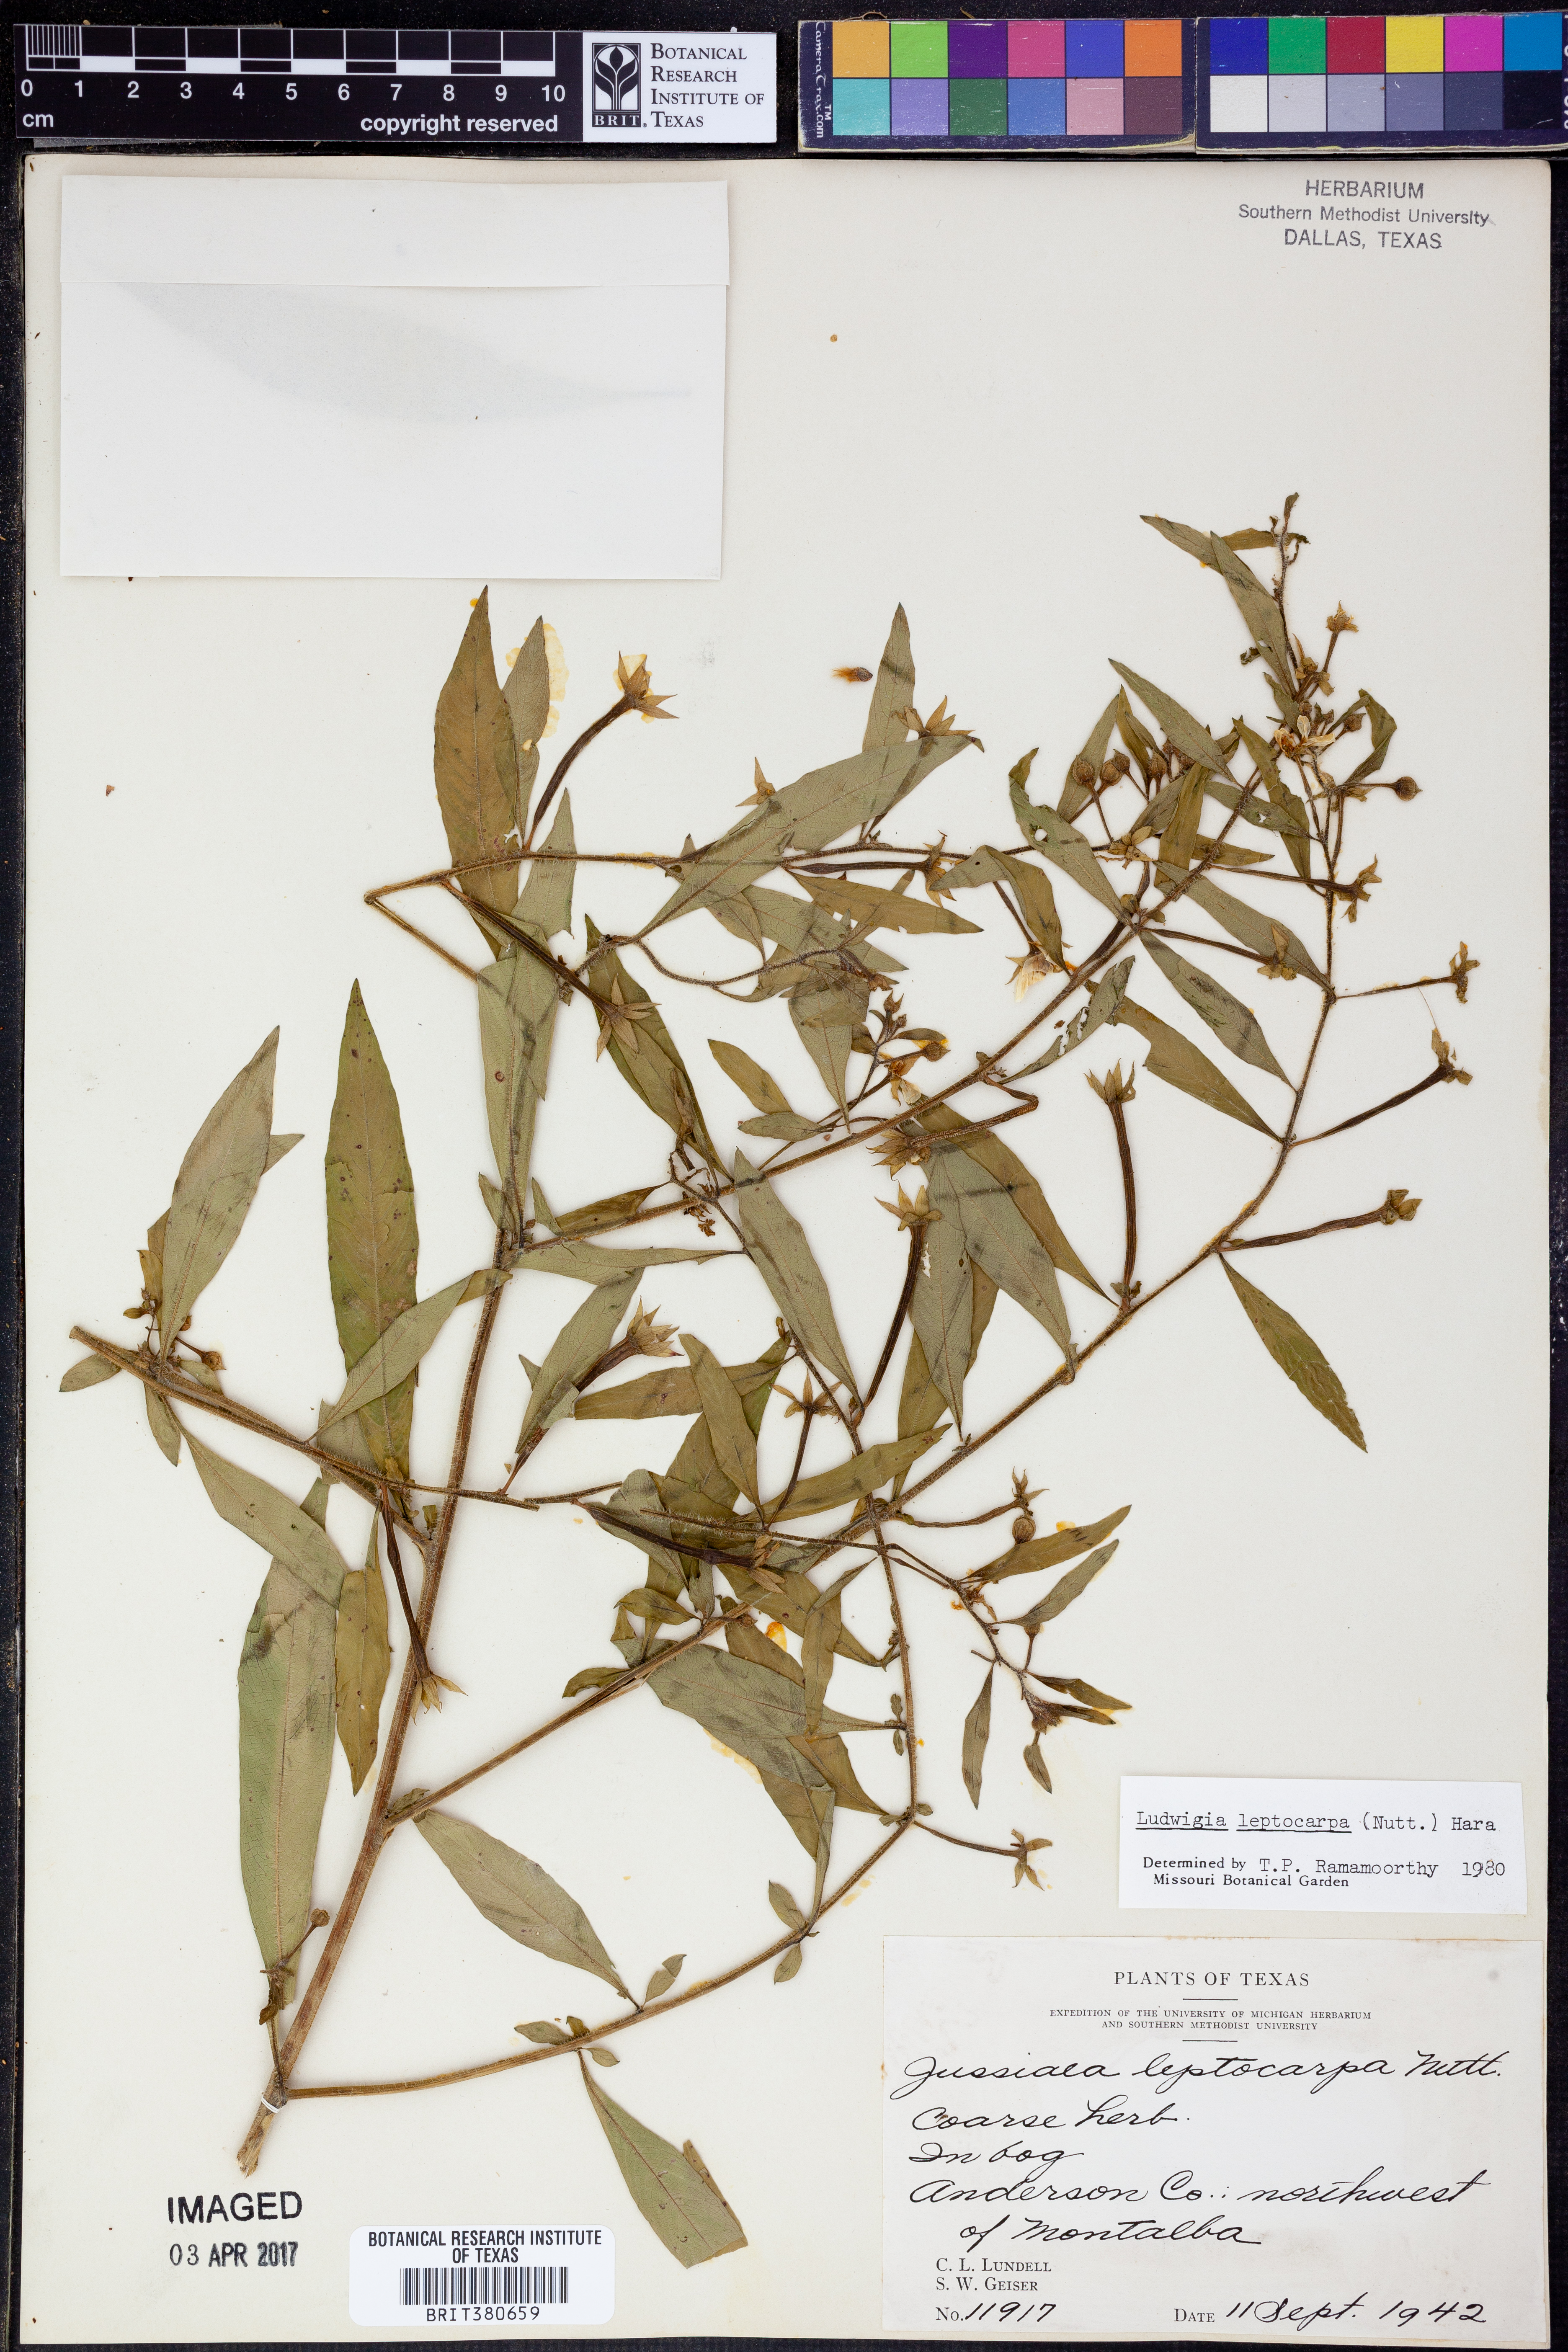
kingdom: Plantae
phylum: Tracheophyta
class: Magnoliopsida
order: Myrtales
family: Onagraceae
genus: Ludwigia
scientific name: Ludwigia leptocarpa
